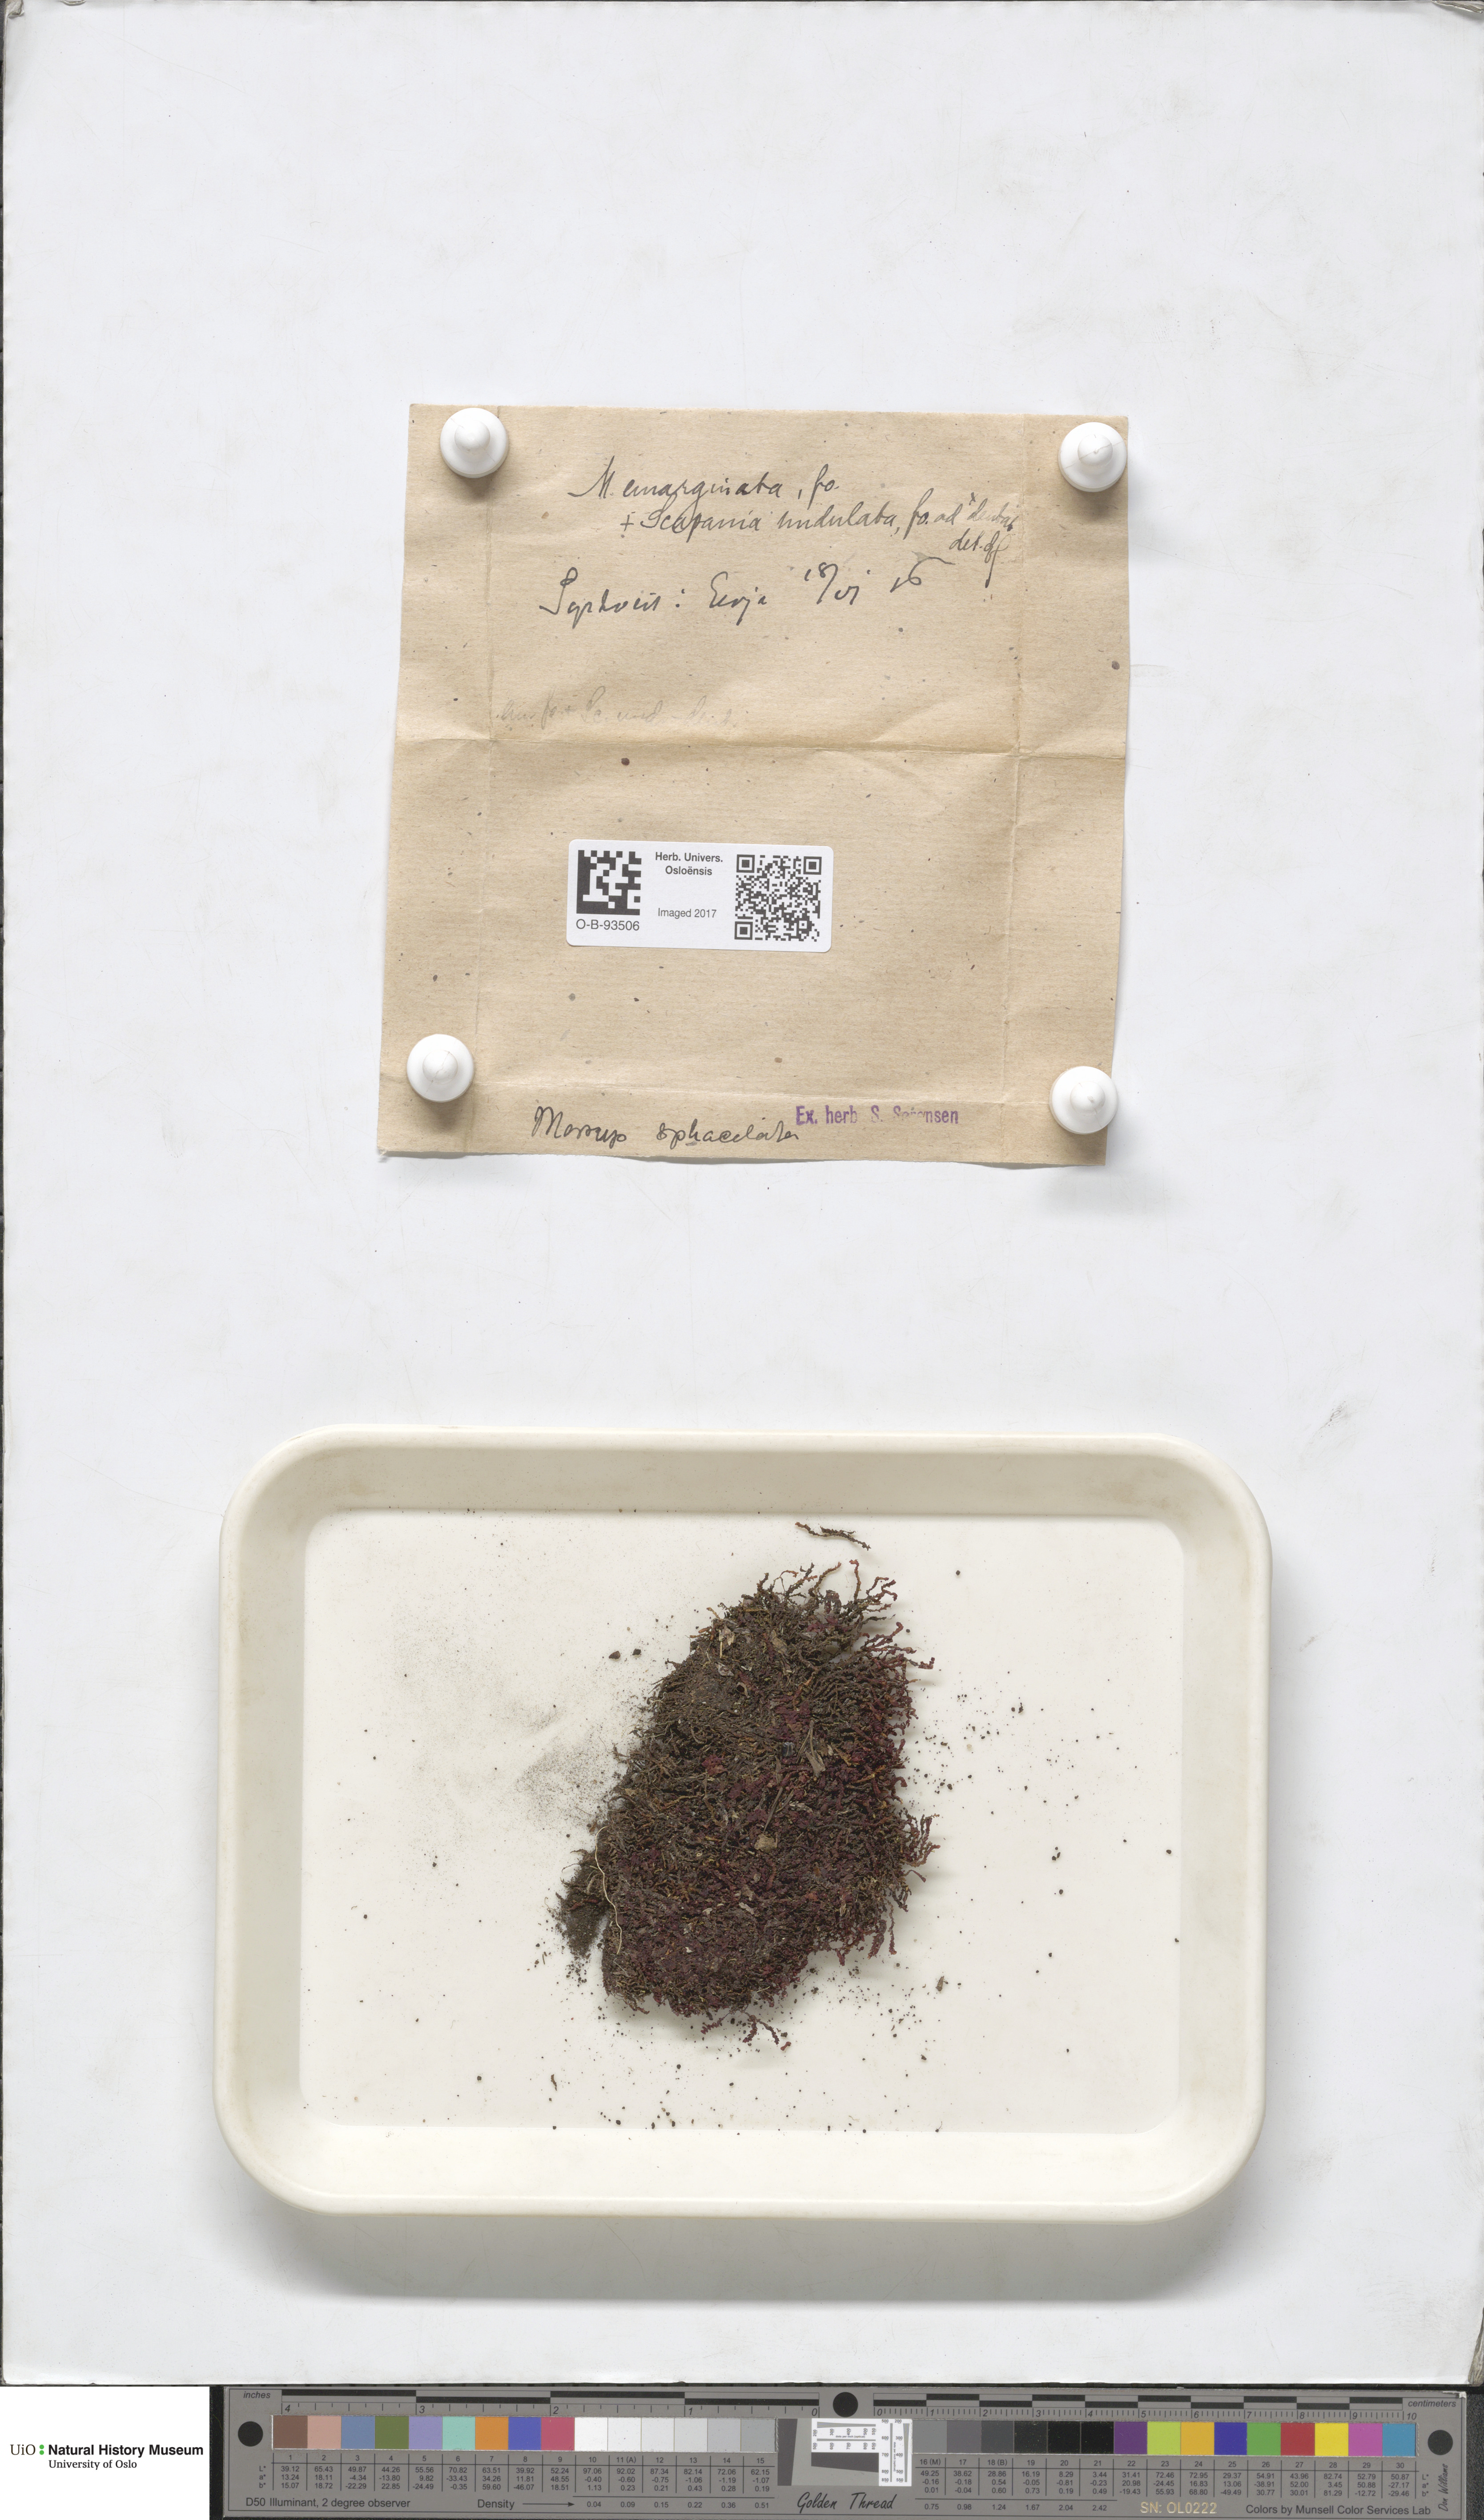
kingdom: Plantae
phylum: Marchantiophyta
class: Jungermanniopsida
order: Jungermanniales
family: Gymnomitriaceae
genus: Marsupella
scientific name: Marsupella emarginata
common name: Notched rustwort
